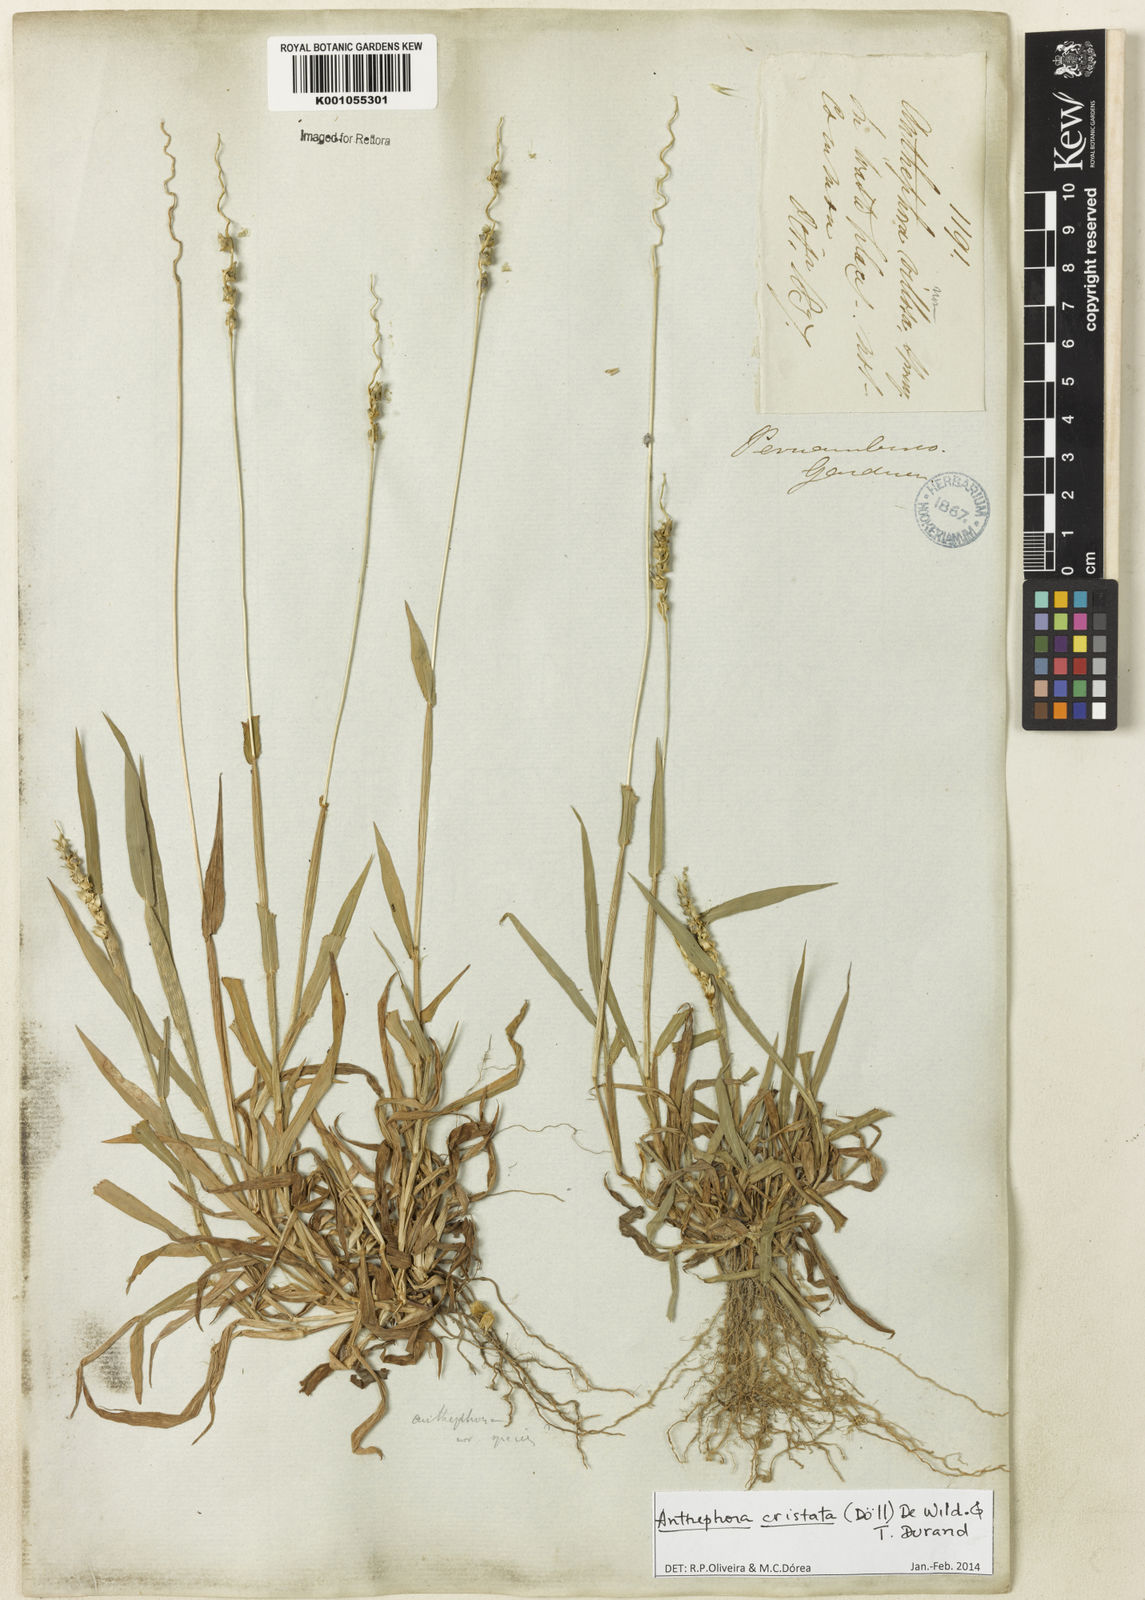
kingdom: Plantae
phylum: Tracheophyta
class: Liliopsida
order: Poales
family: Poaceae
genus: Anthephora
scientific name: Anthephora
